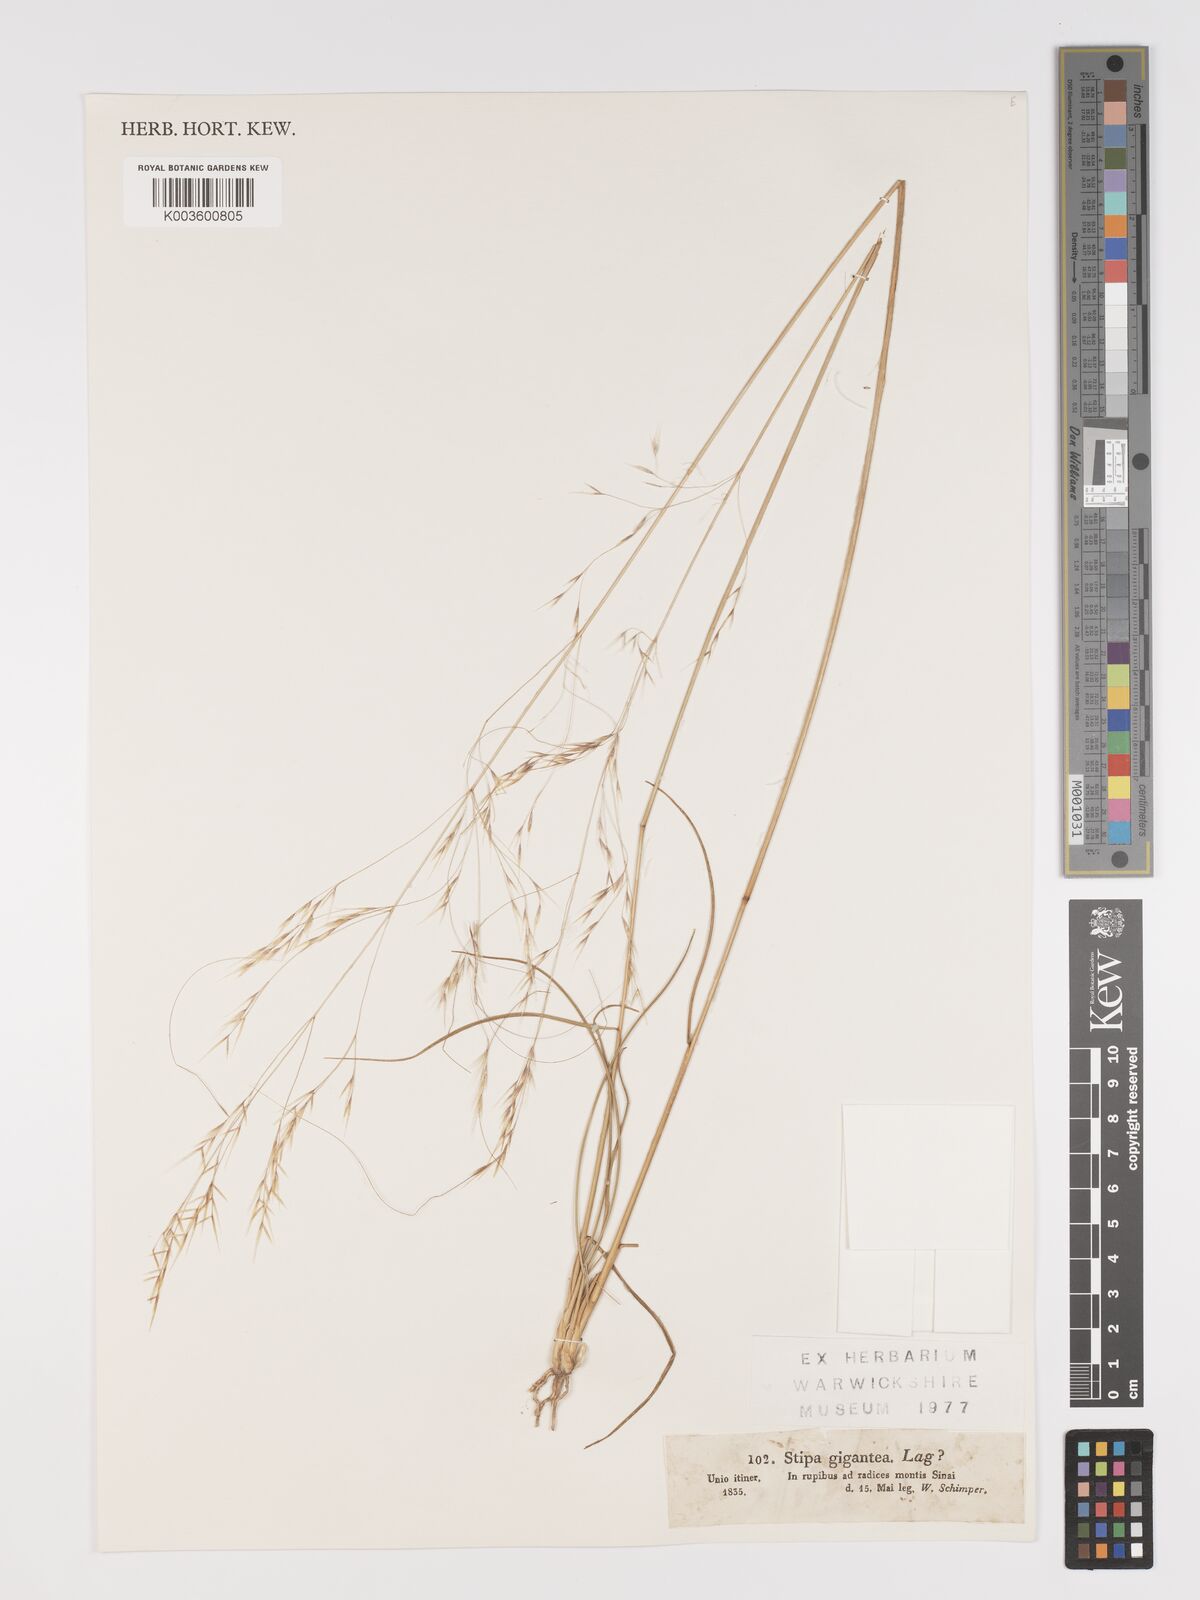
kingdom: Plantae
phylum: Tracheophyta
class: Liliopsida
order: Poales
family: Poaceae
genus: Stipa
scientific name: Stipa
